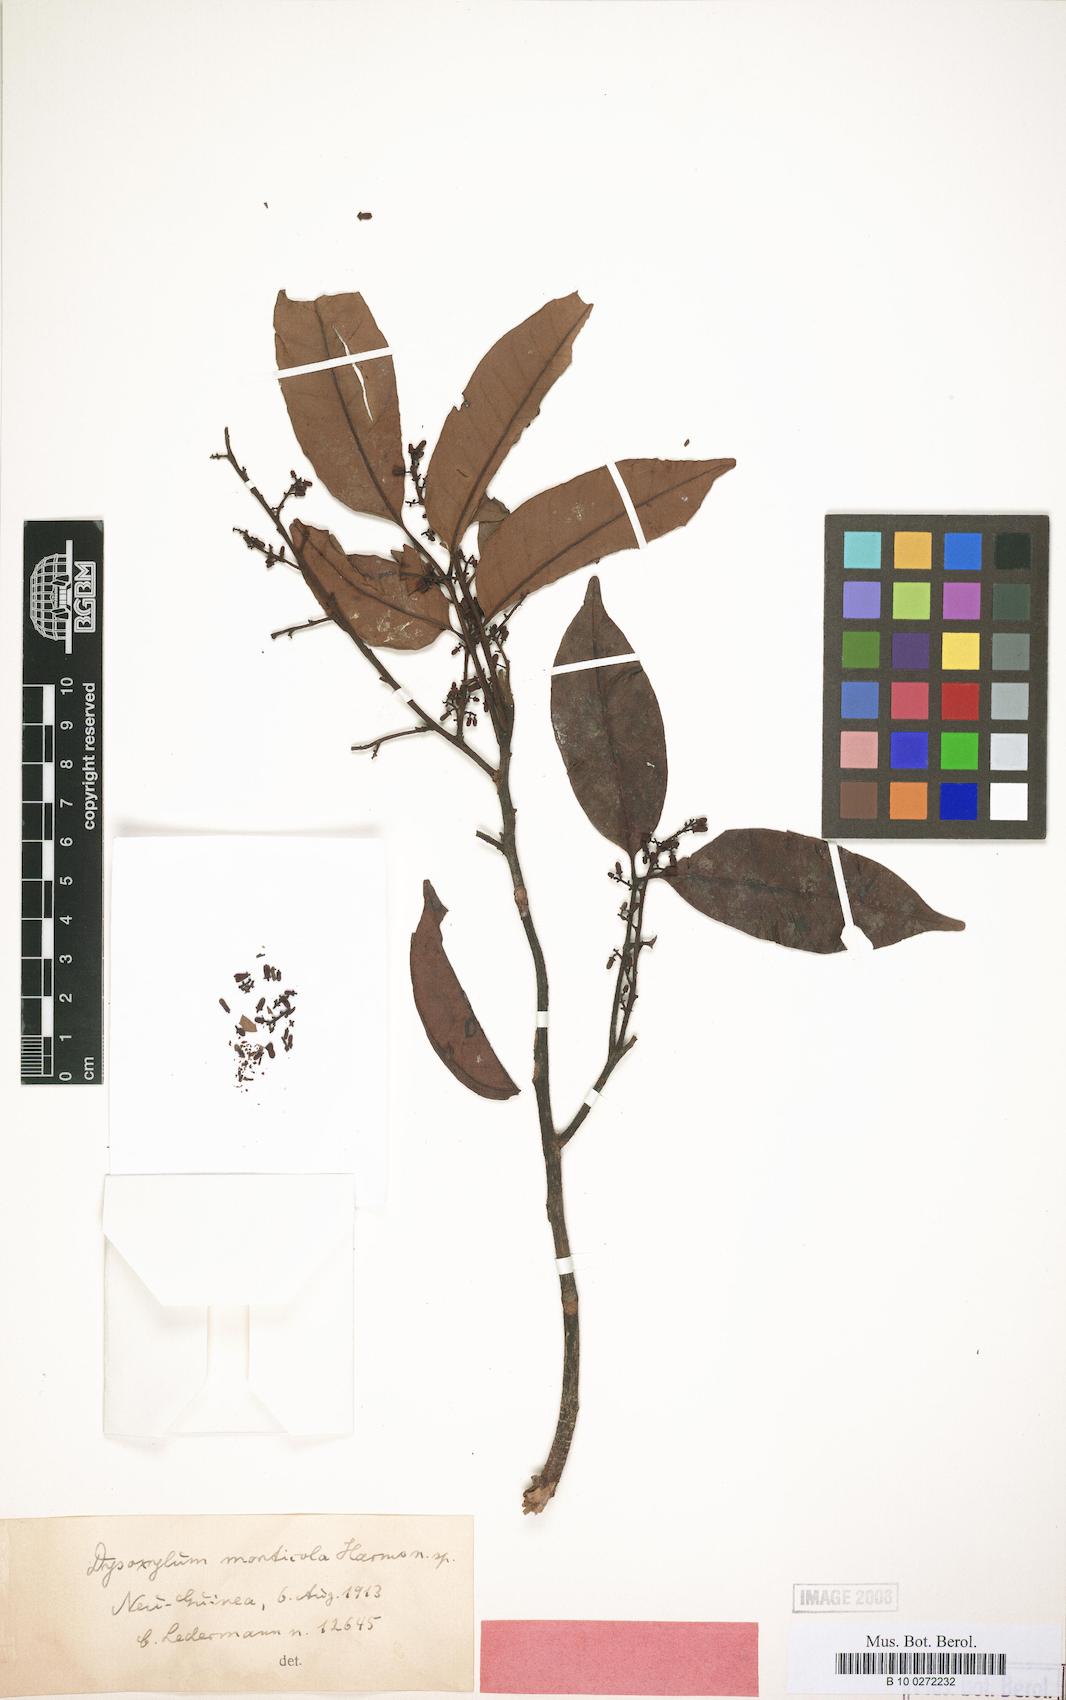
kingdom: Plantae
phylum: Tracheophyta
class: Magnoliopsida
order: Sapindales
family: Meliaceae
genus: Prasoxylon
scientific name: Prasoxylon alliaceum
